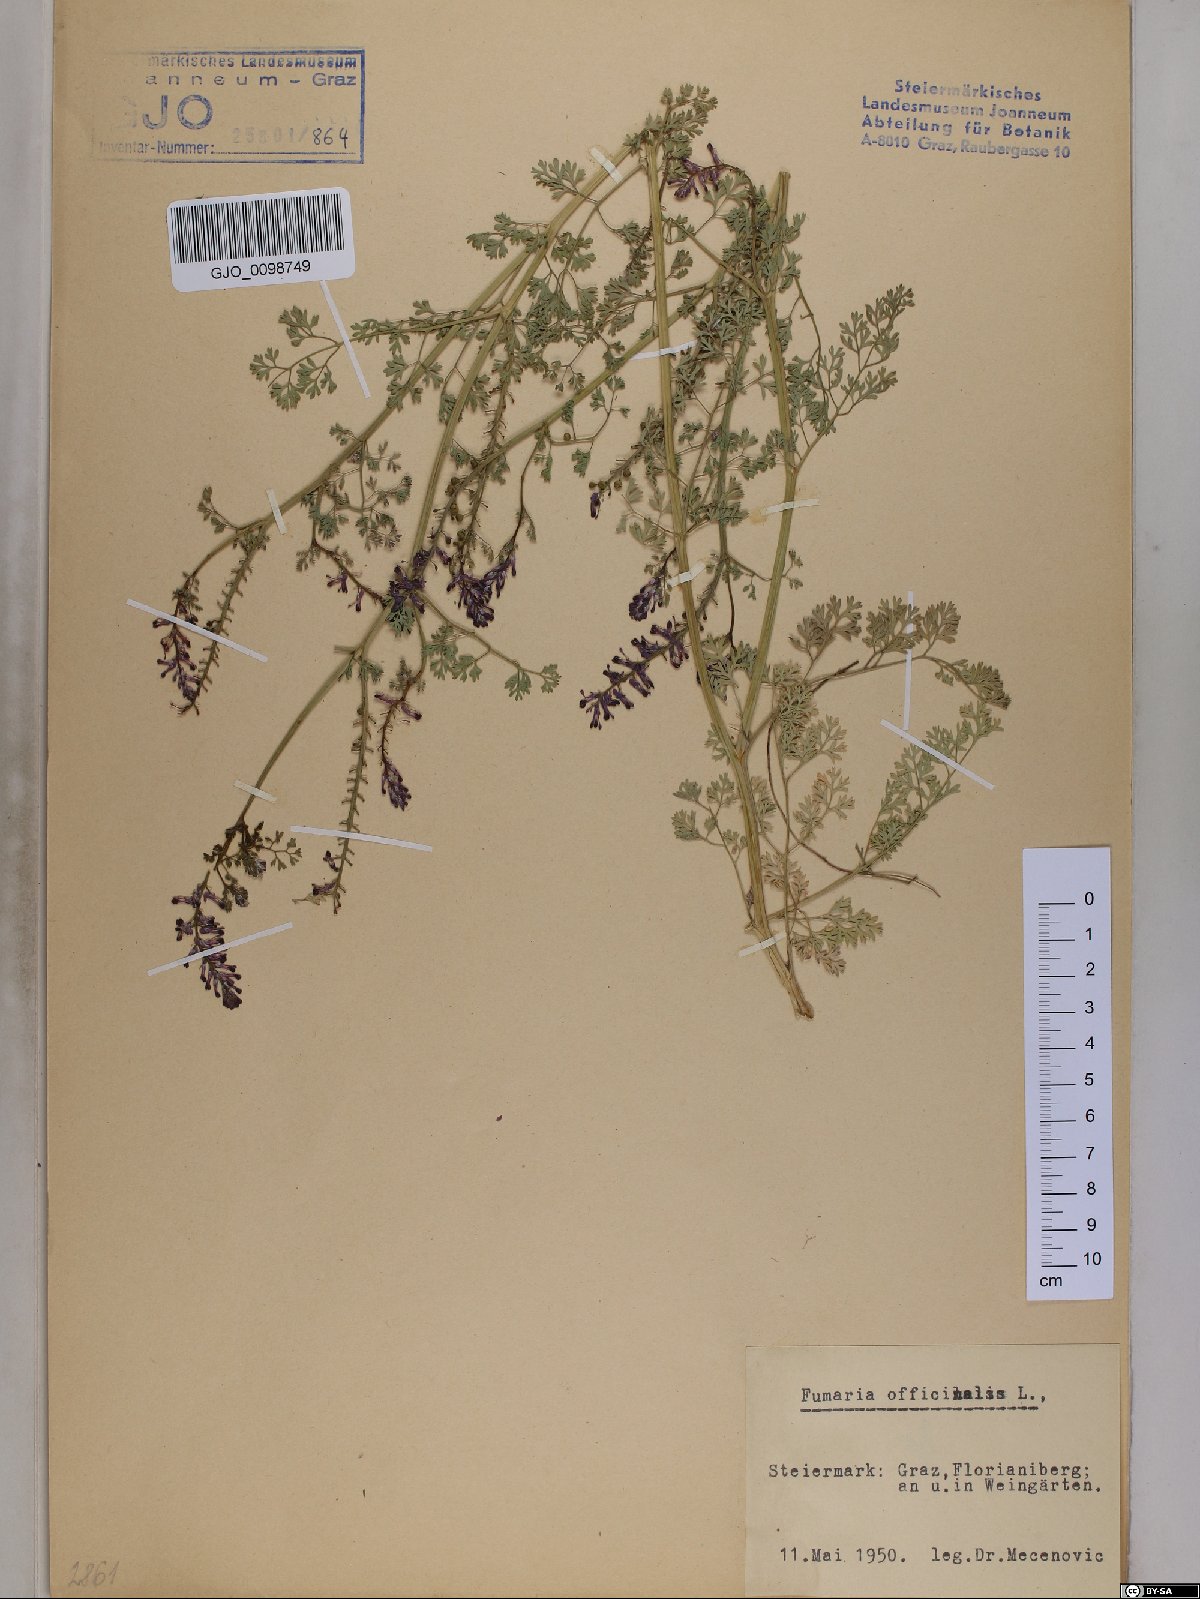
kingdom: Plantae
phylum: Tracheophyta
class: Magnoliopsida
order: Ranunculales
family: Papaveraceae
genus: Fumaria
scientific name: Fumaria officinalis
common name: Common fumitory
